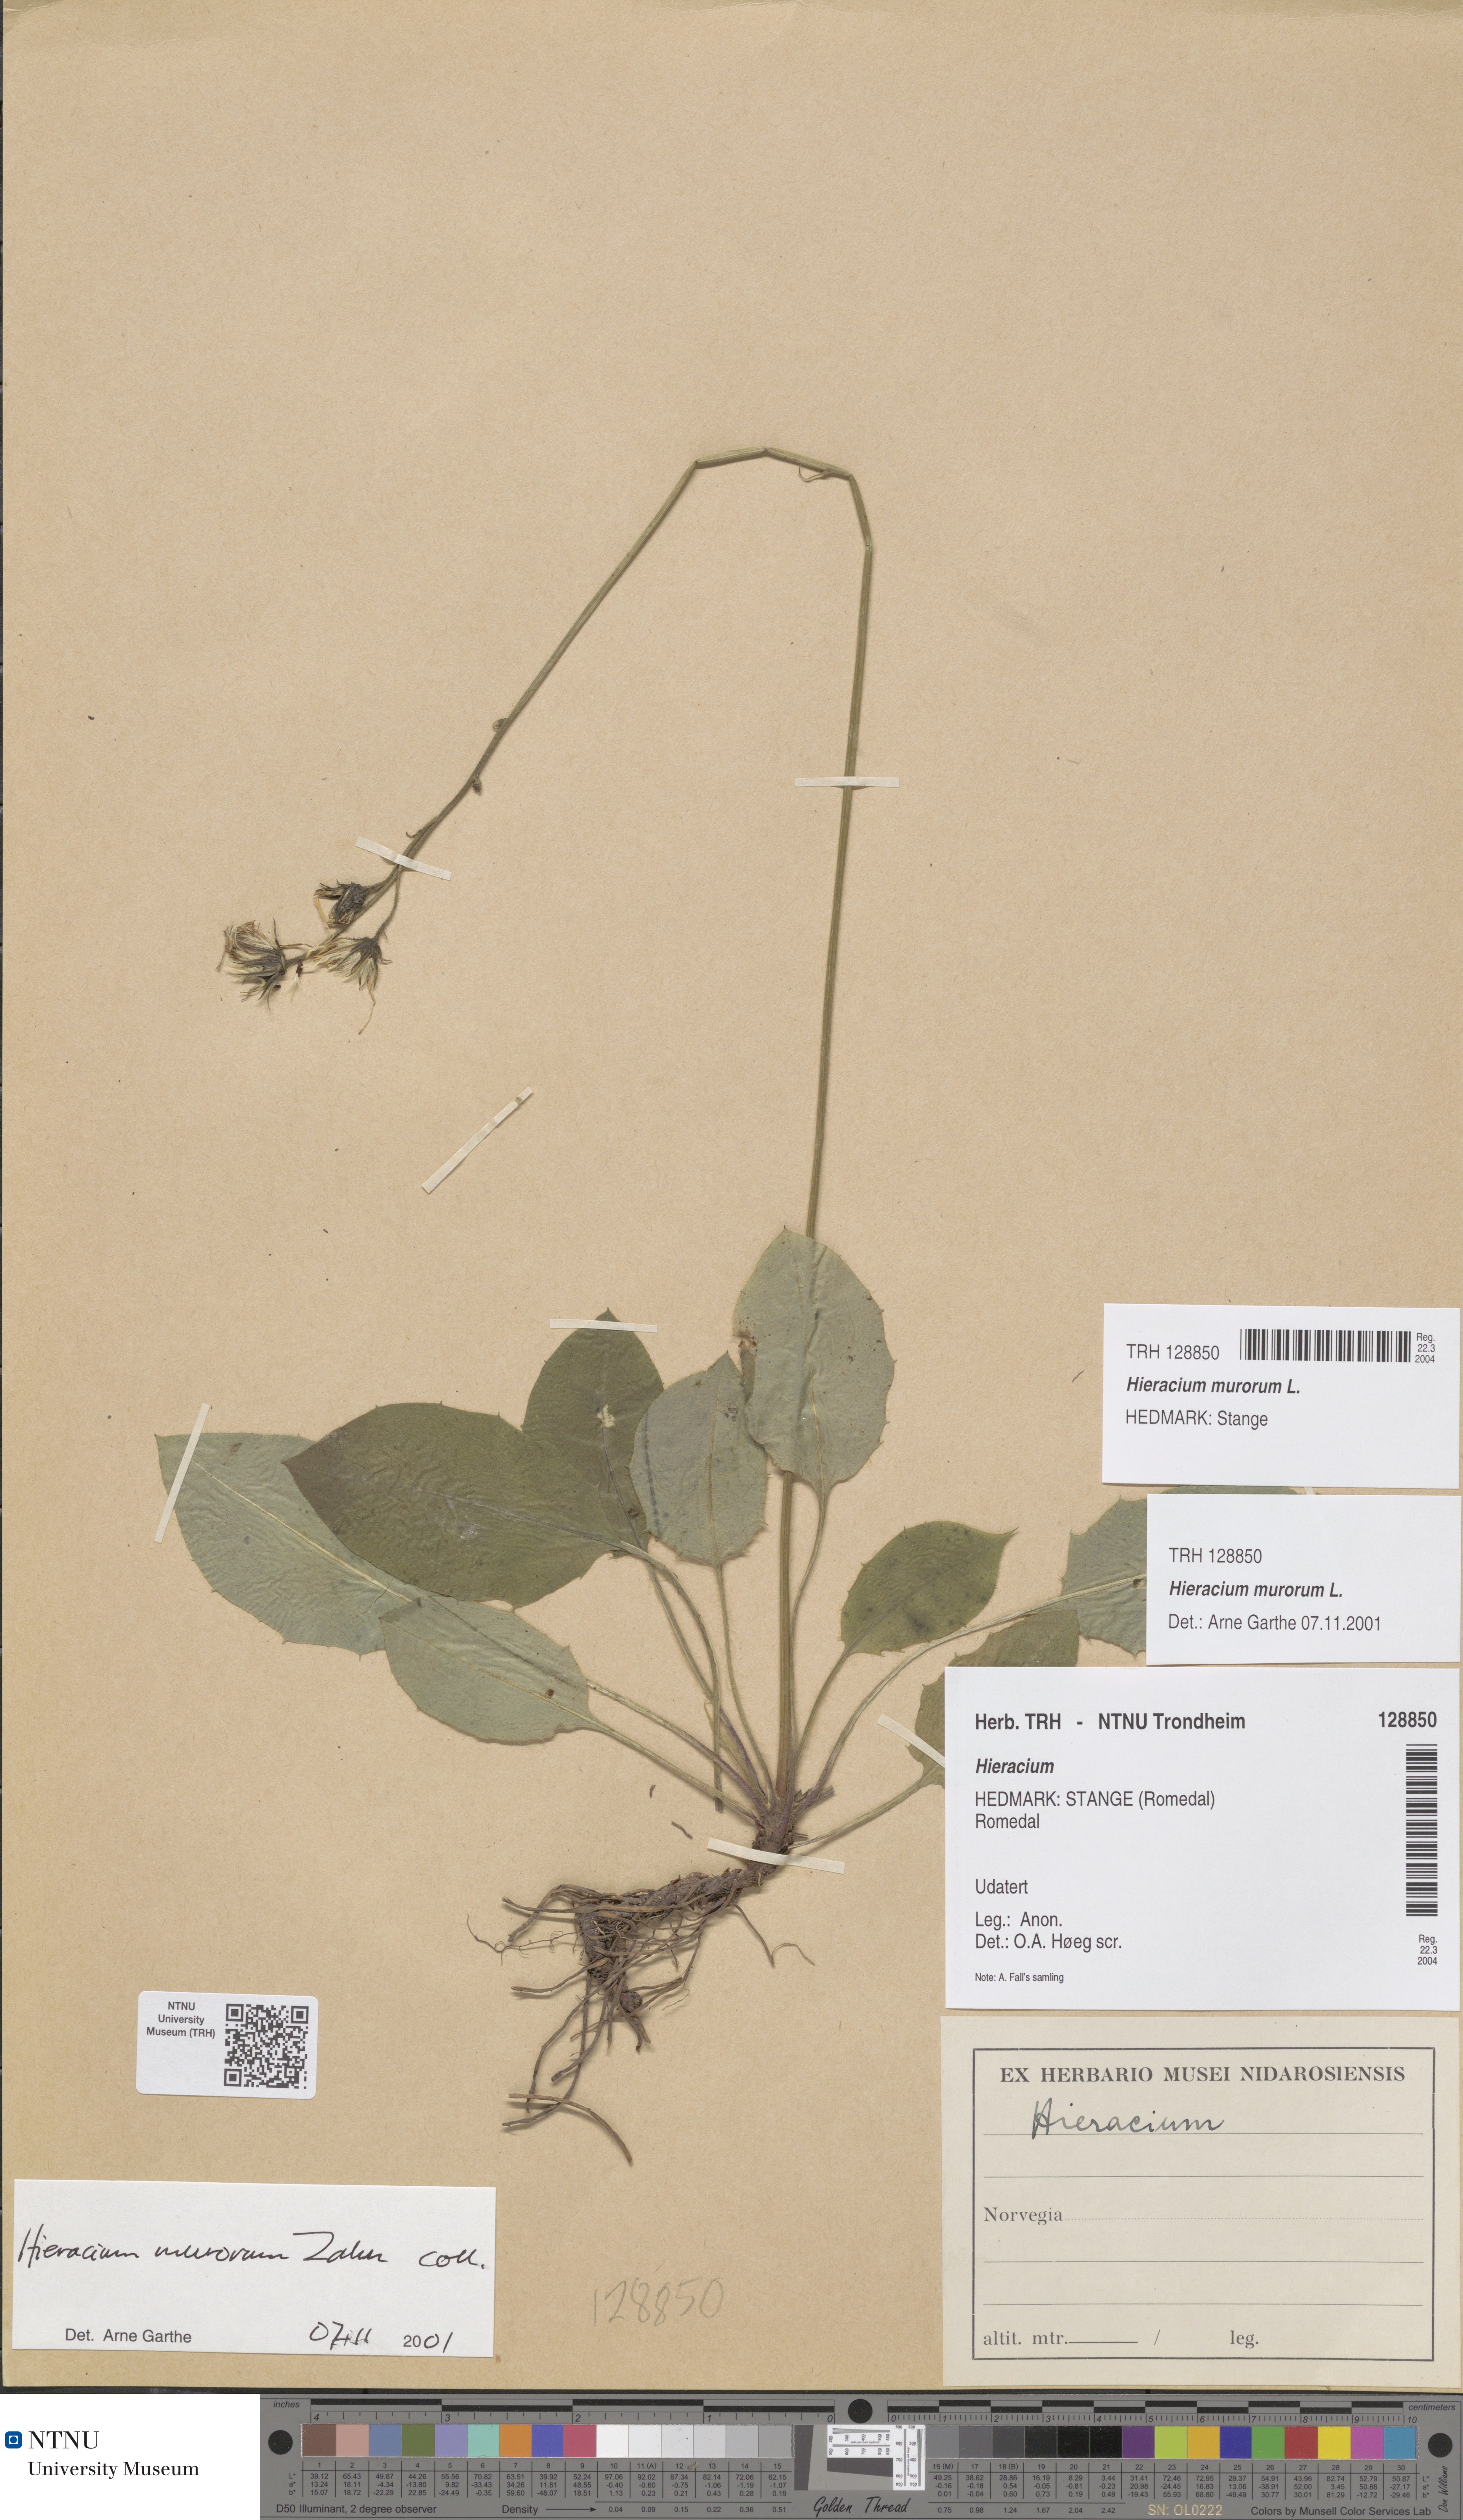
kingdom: Plantae
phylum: Tracheophyta
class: Magnoliopsida
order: Asterales
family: Asteraceae
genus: Hieracium
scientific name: Hieracium murorum
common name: Wall hawkweed
